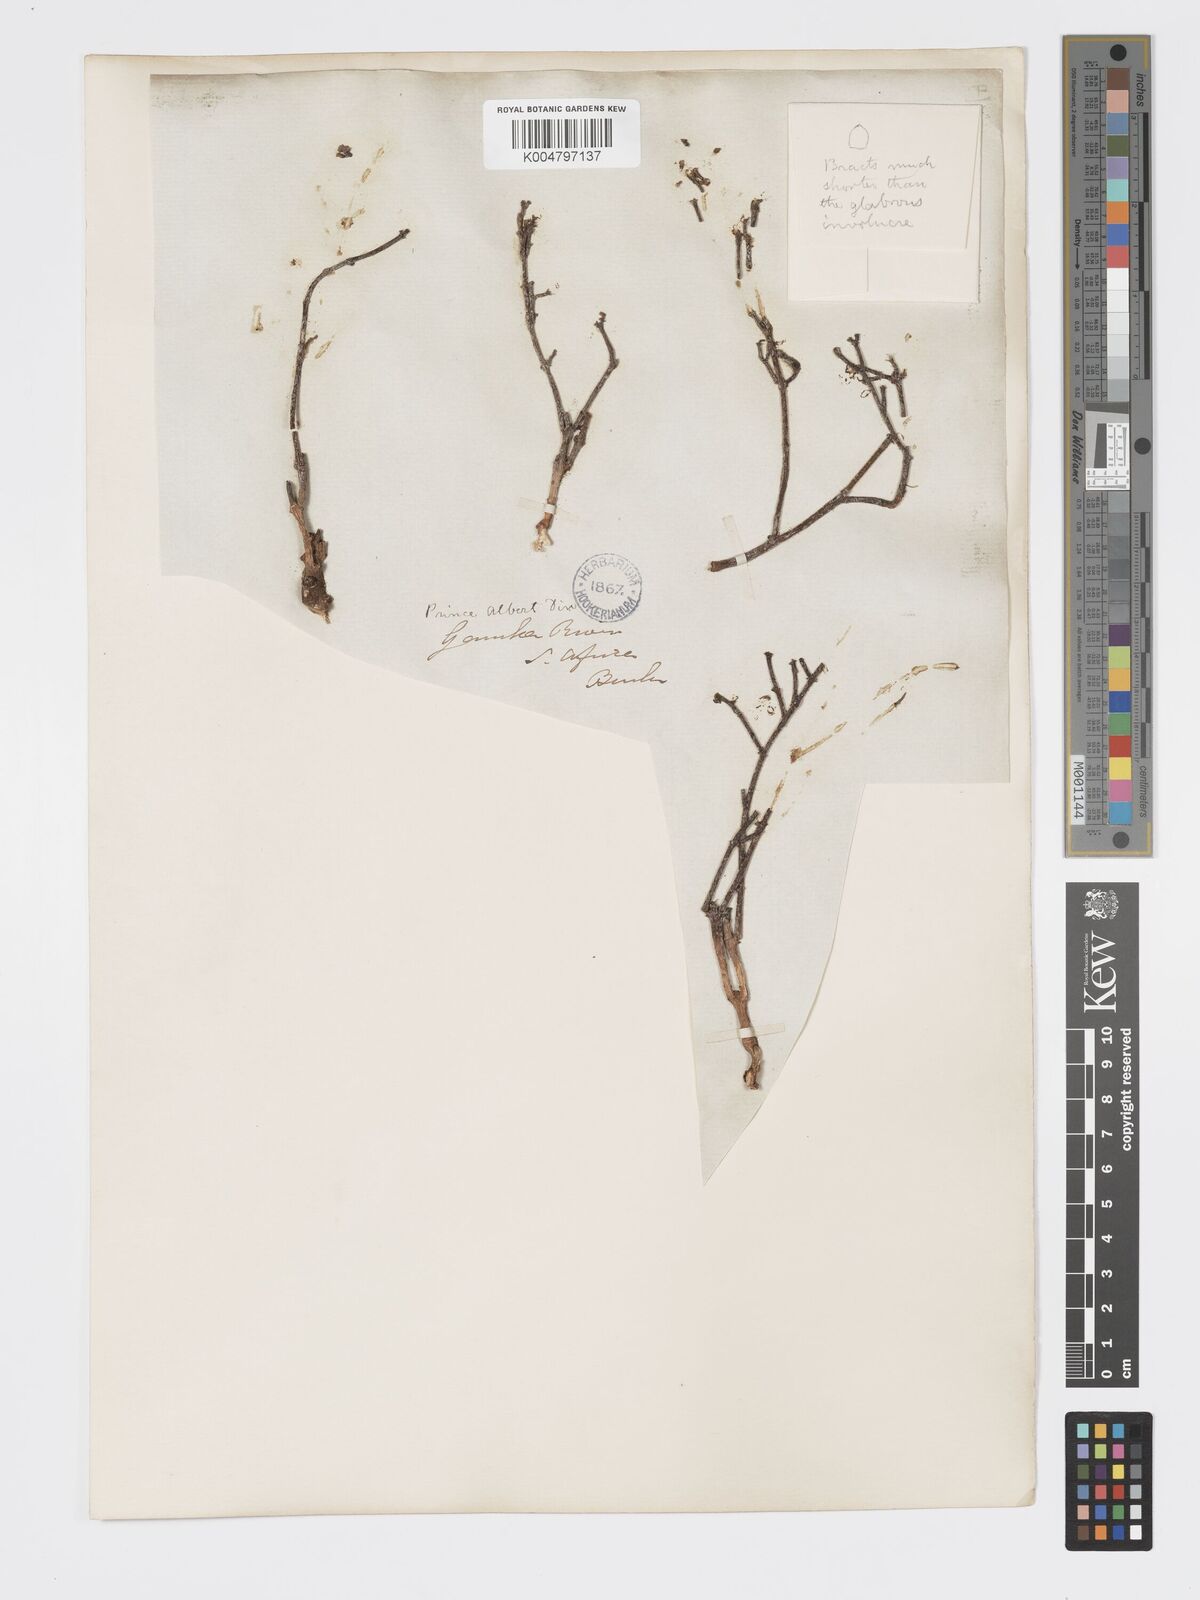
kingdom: Plantae
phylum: Tracheophyta
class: Magnoliopsida
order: Malpighiales
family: Euphorbiaceae
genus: Euphorbia
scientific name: Euphorbia
